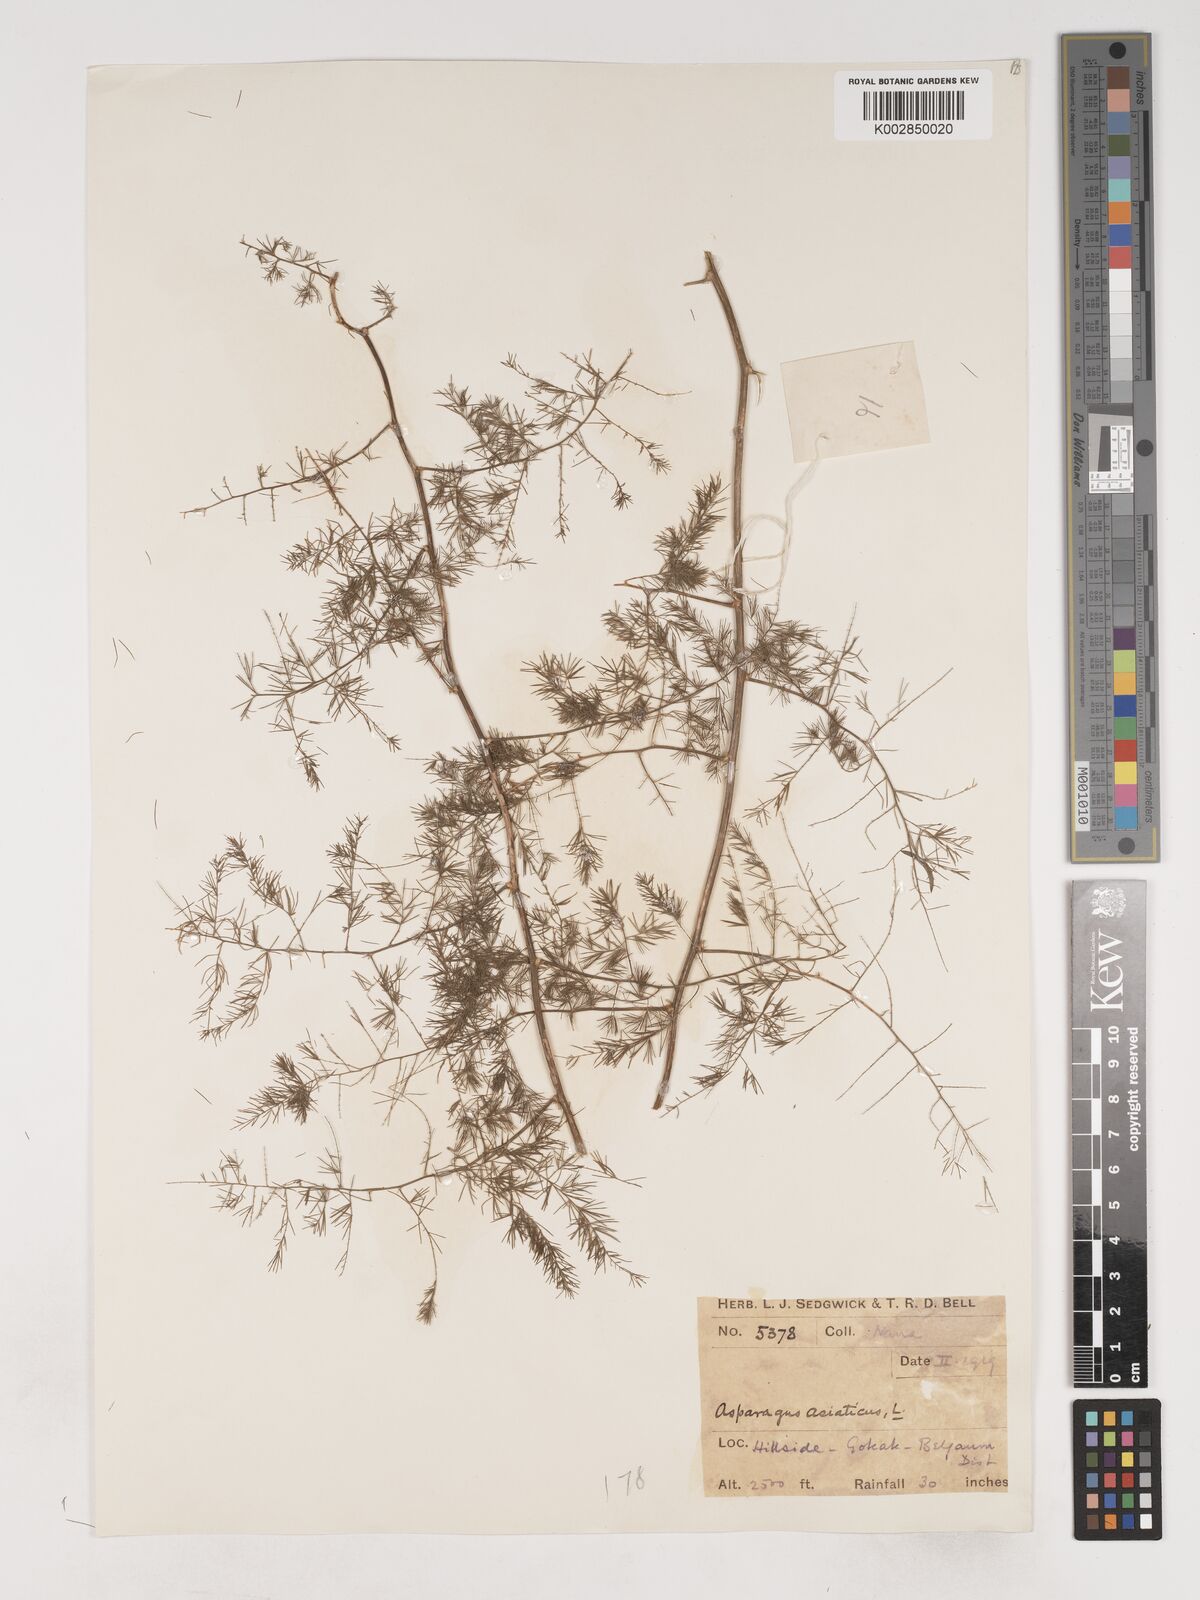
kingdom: Plantae
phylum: Tracheophyta
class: Liliopsida
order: Asparagales
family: Asparagaceae
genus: Asparagus
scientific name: Asparagus africanus
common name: Asparagus-fern
